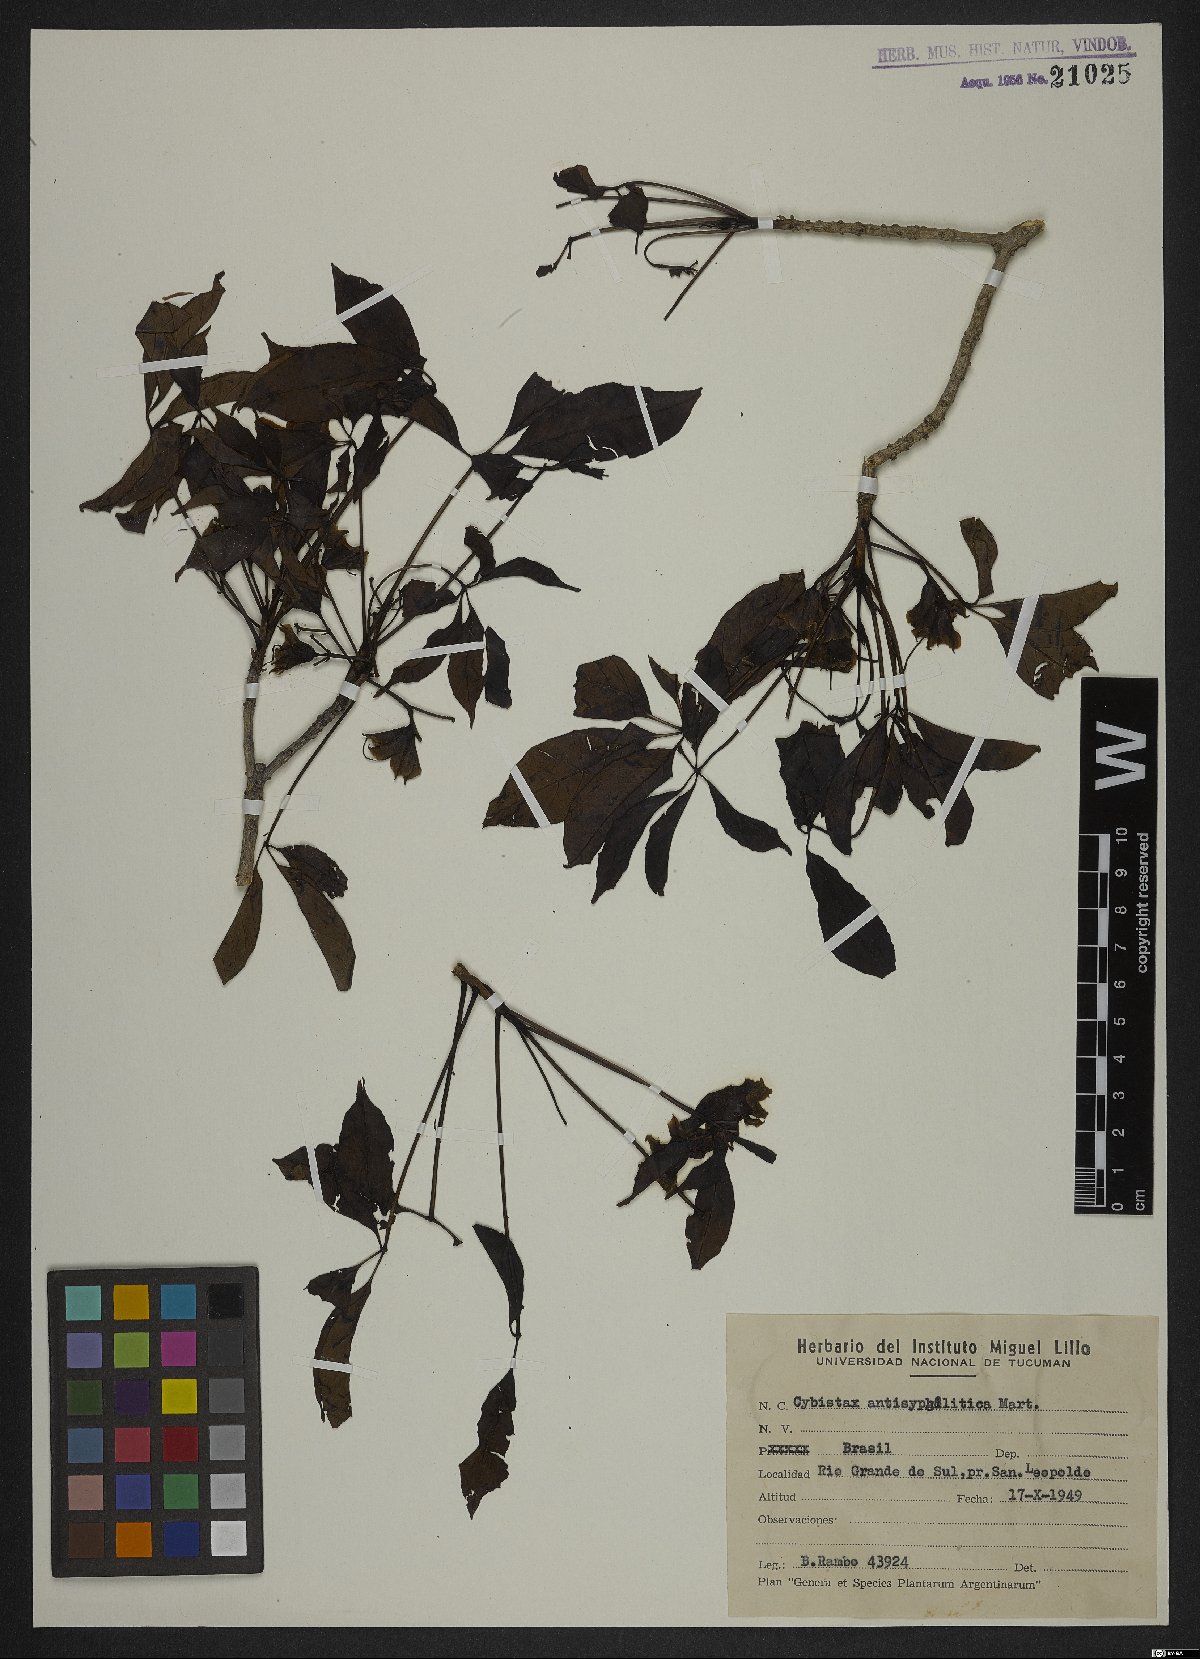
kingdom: Plantae
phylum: Tracheophyta
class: Magnoliopsida
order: Lamiales
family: Bignoniaceae
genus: Cybistax
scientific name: Cybistax antisyphilitica
